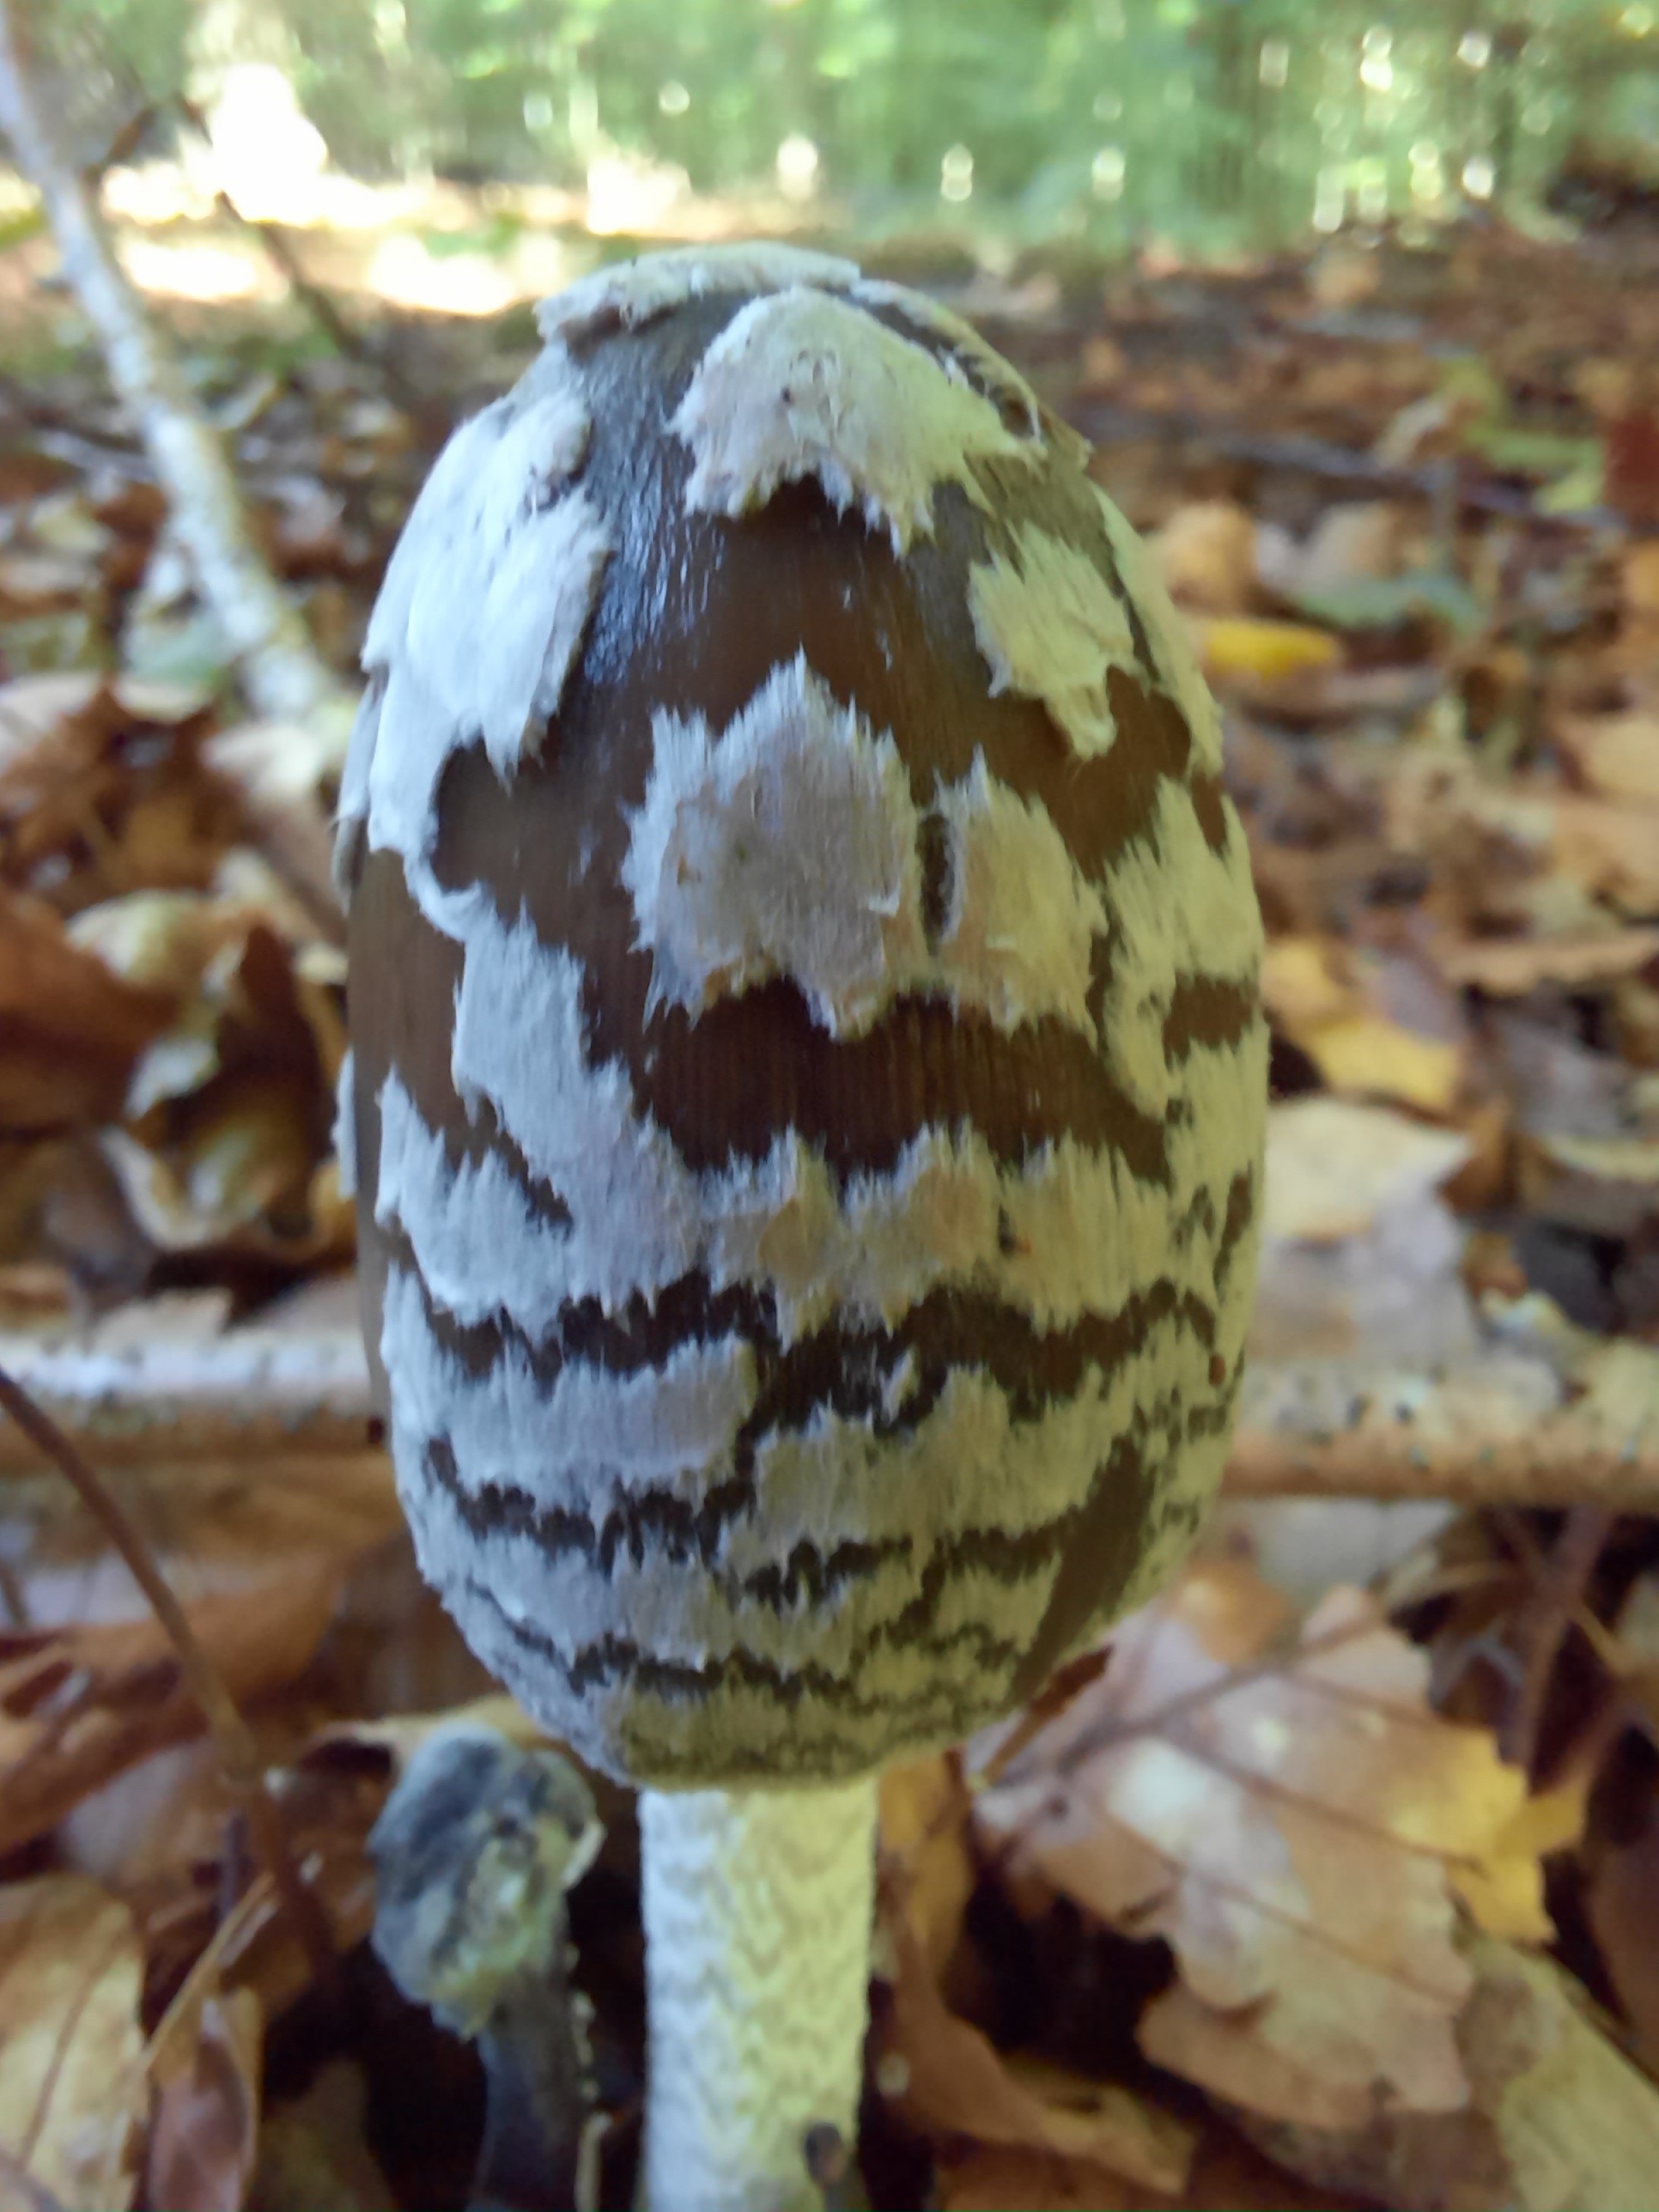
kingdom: Fungi
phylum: Basidiomycota
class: Agaricomycetes
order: Agaricales
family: Psathyrellaceae
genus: Coprinopsis
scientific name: Coprinopsis picacea
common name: skade-blækhat
